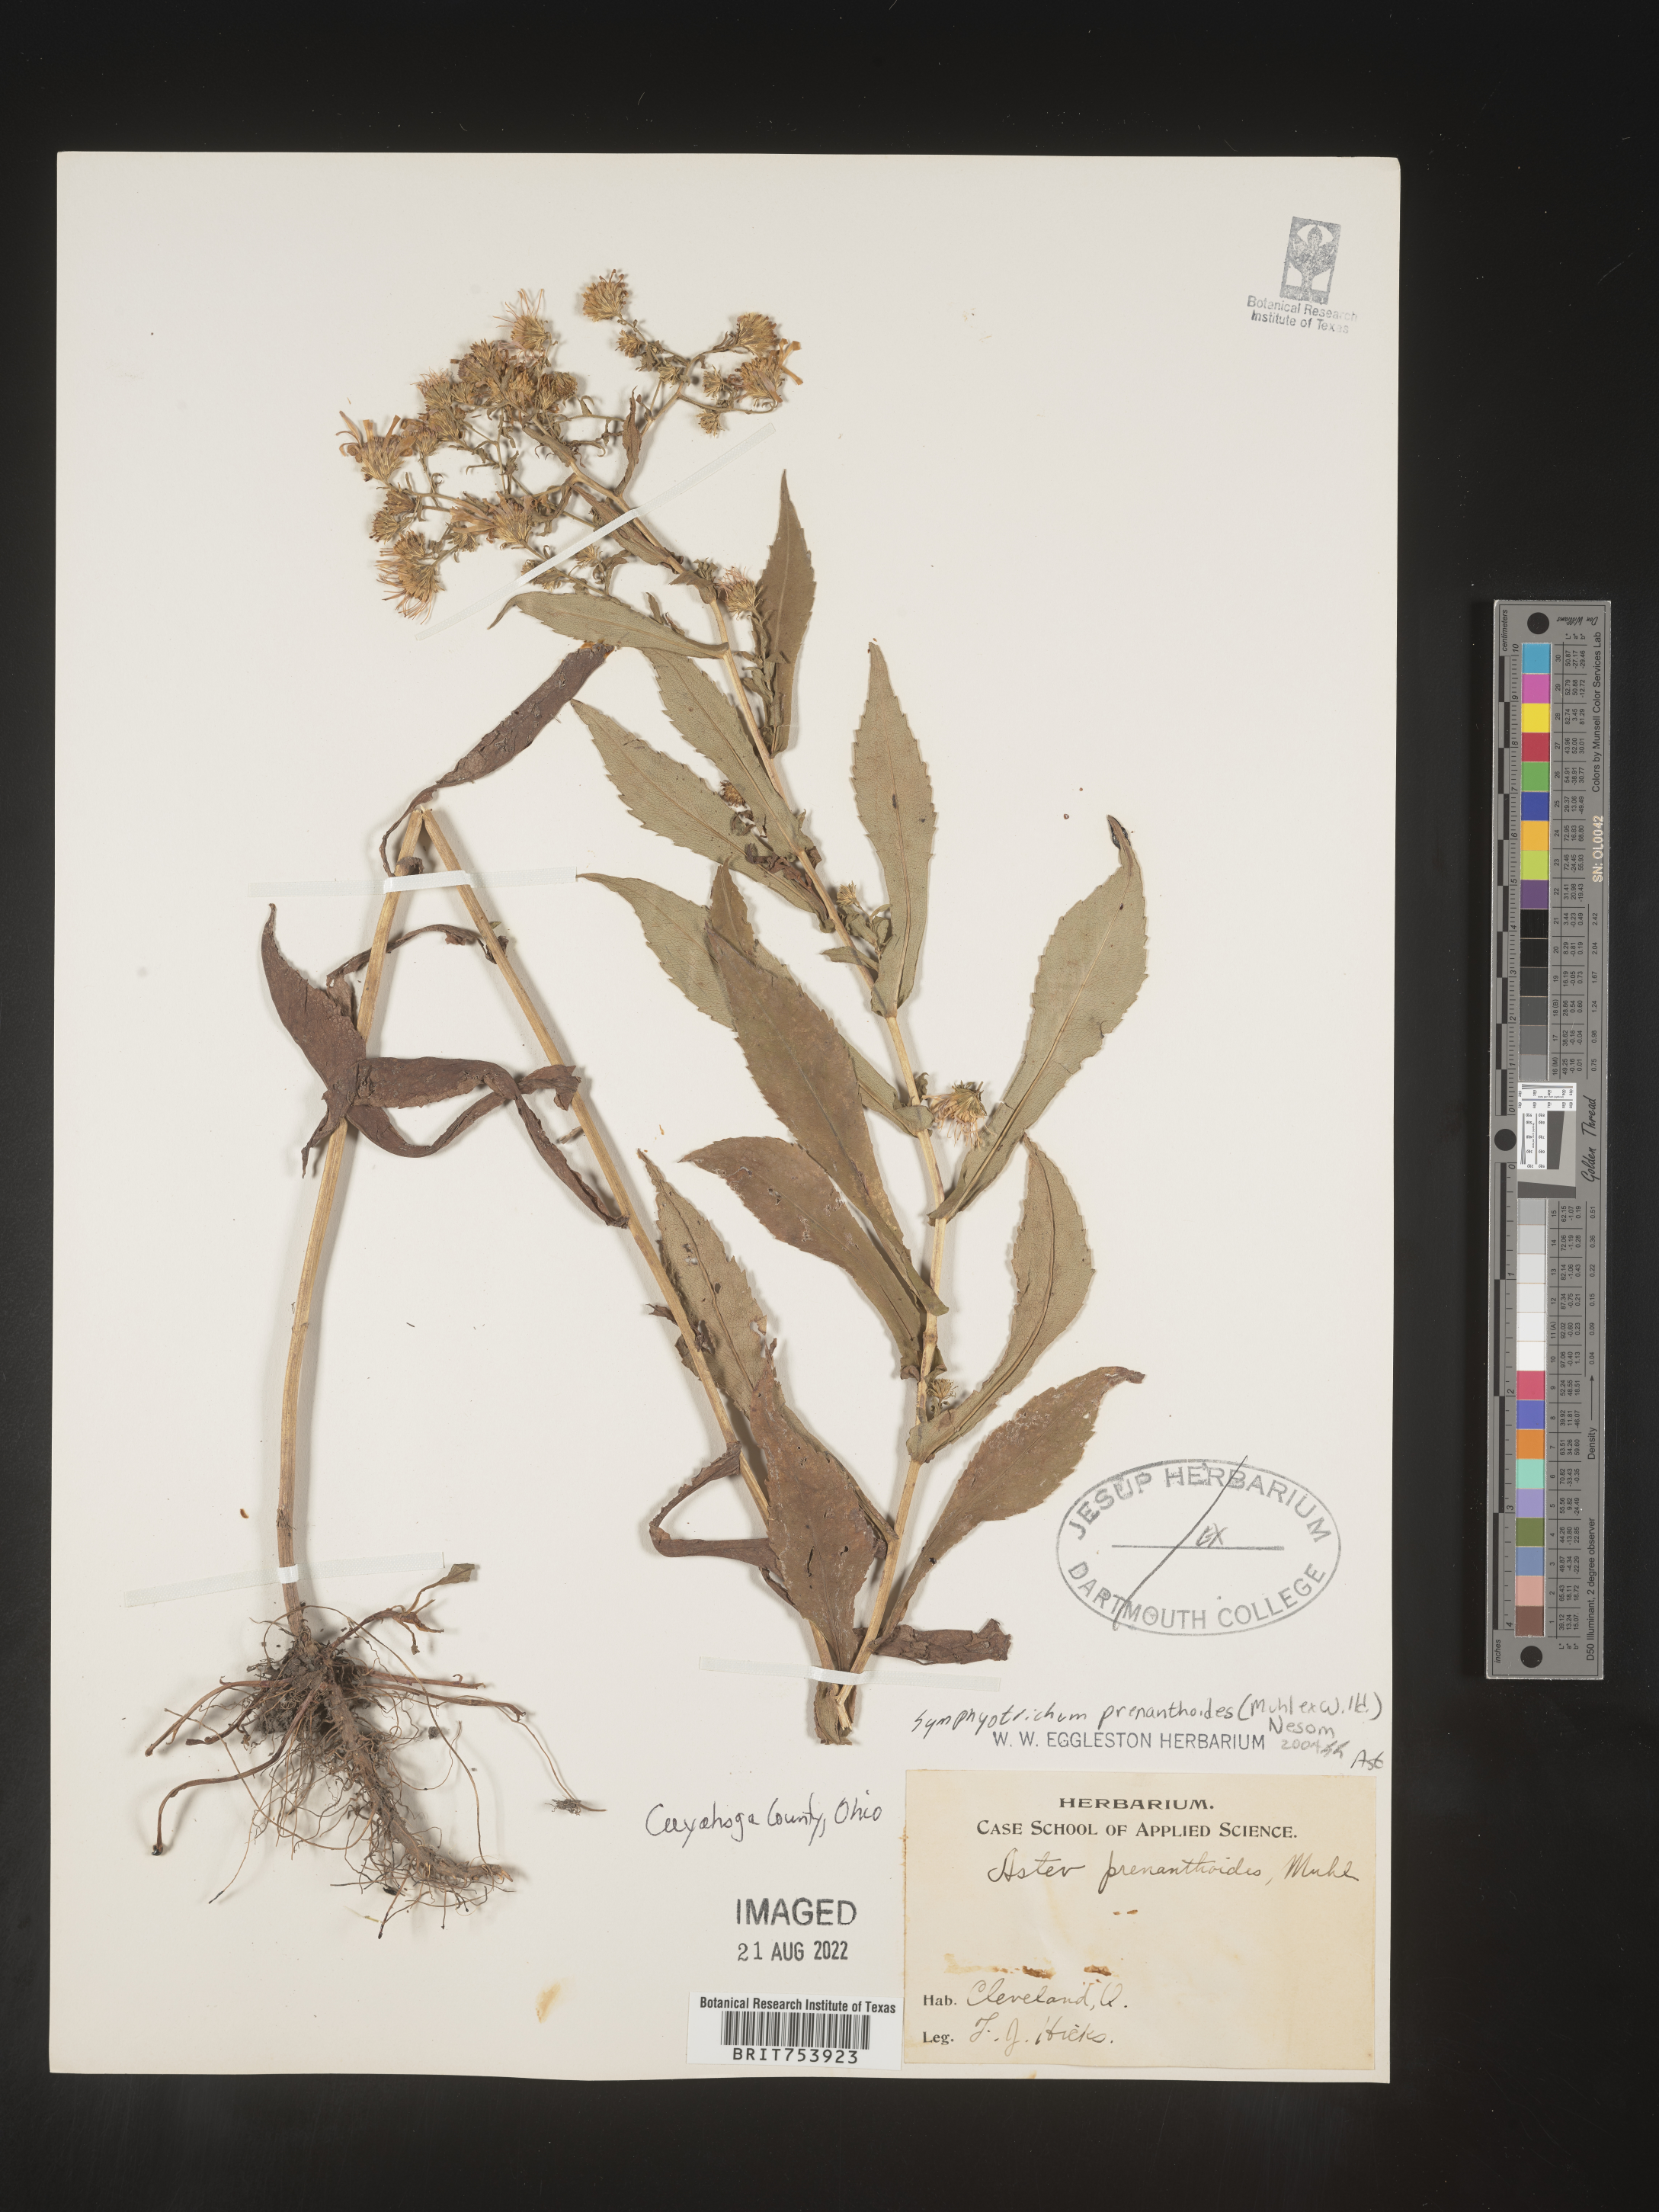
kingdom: Plantae
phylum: Tracheophyta
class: Magnoliopsida
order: Asterales
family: Asteraceae
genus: Symphyotrichum
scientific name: Symphyotrichum prenanthoides
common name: Crooked-stem aster
